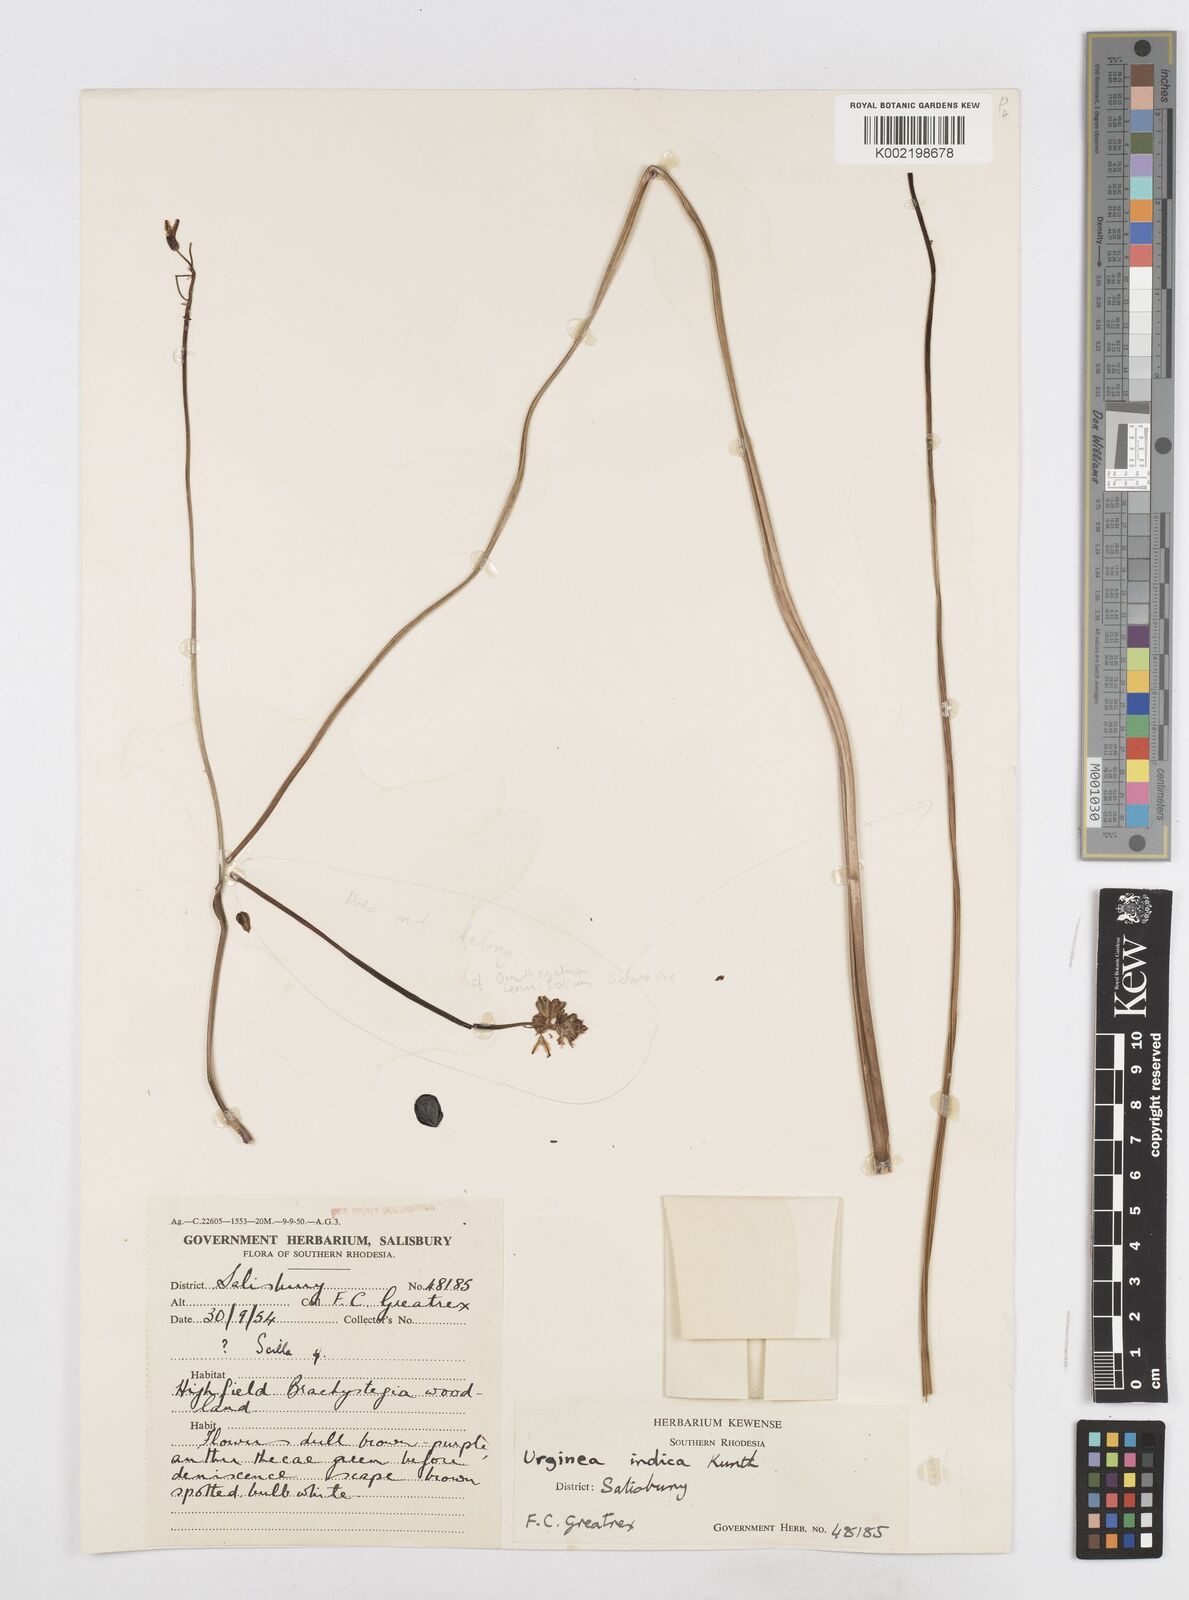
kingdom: Plantae
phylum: Tracheophyta
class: Liliopsida
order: Asparagales
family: Asparagaceae
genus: Drimia
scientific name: Drimia indica
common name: Indian-squill
